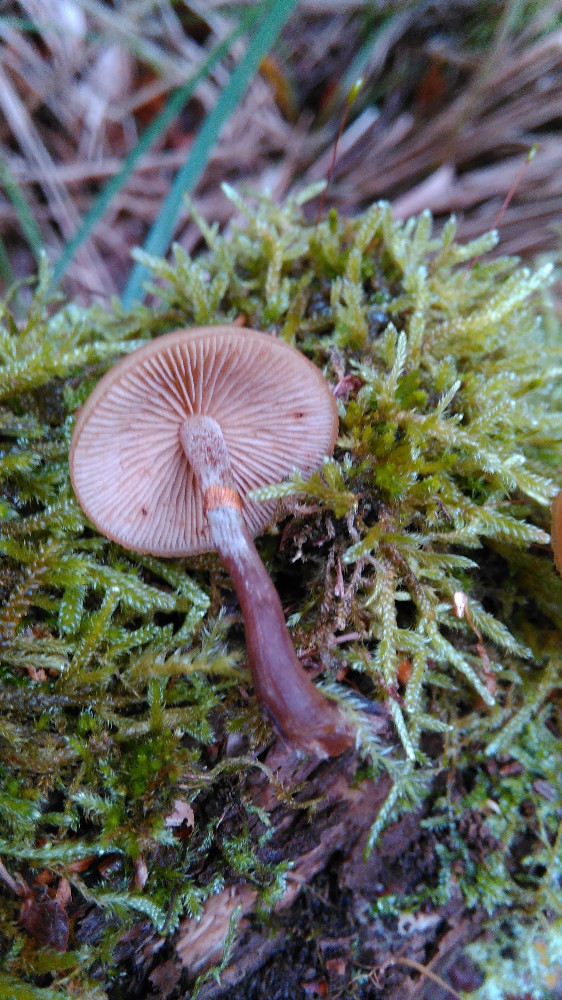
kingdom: Fungi
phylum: Basidiomycota
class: Agaricomycetes
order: Agaricales
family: Hymenogastraceae
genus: Galerina
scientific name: Galerina marginata
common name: randbæltet hjelmhat
